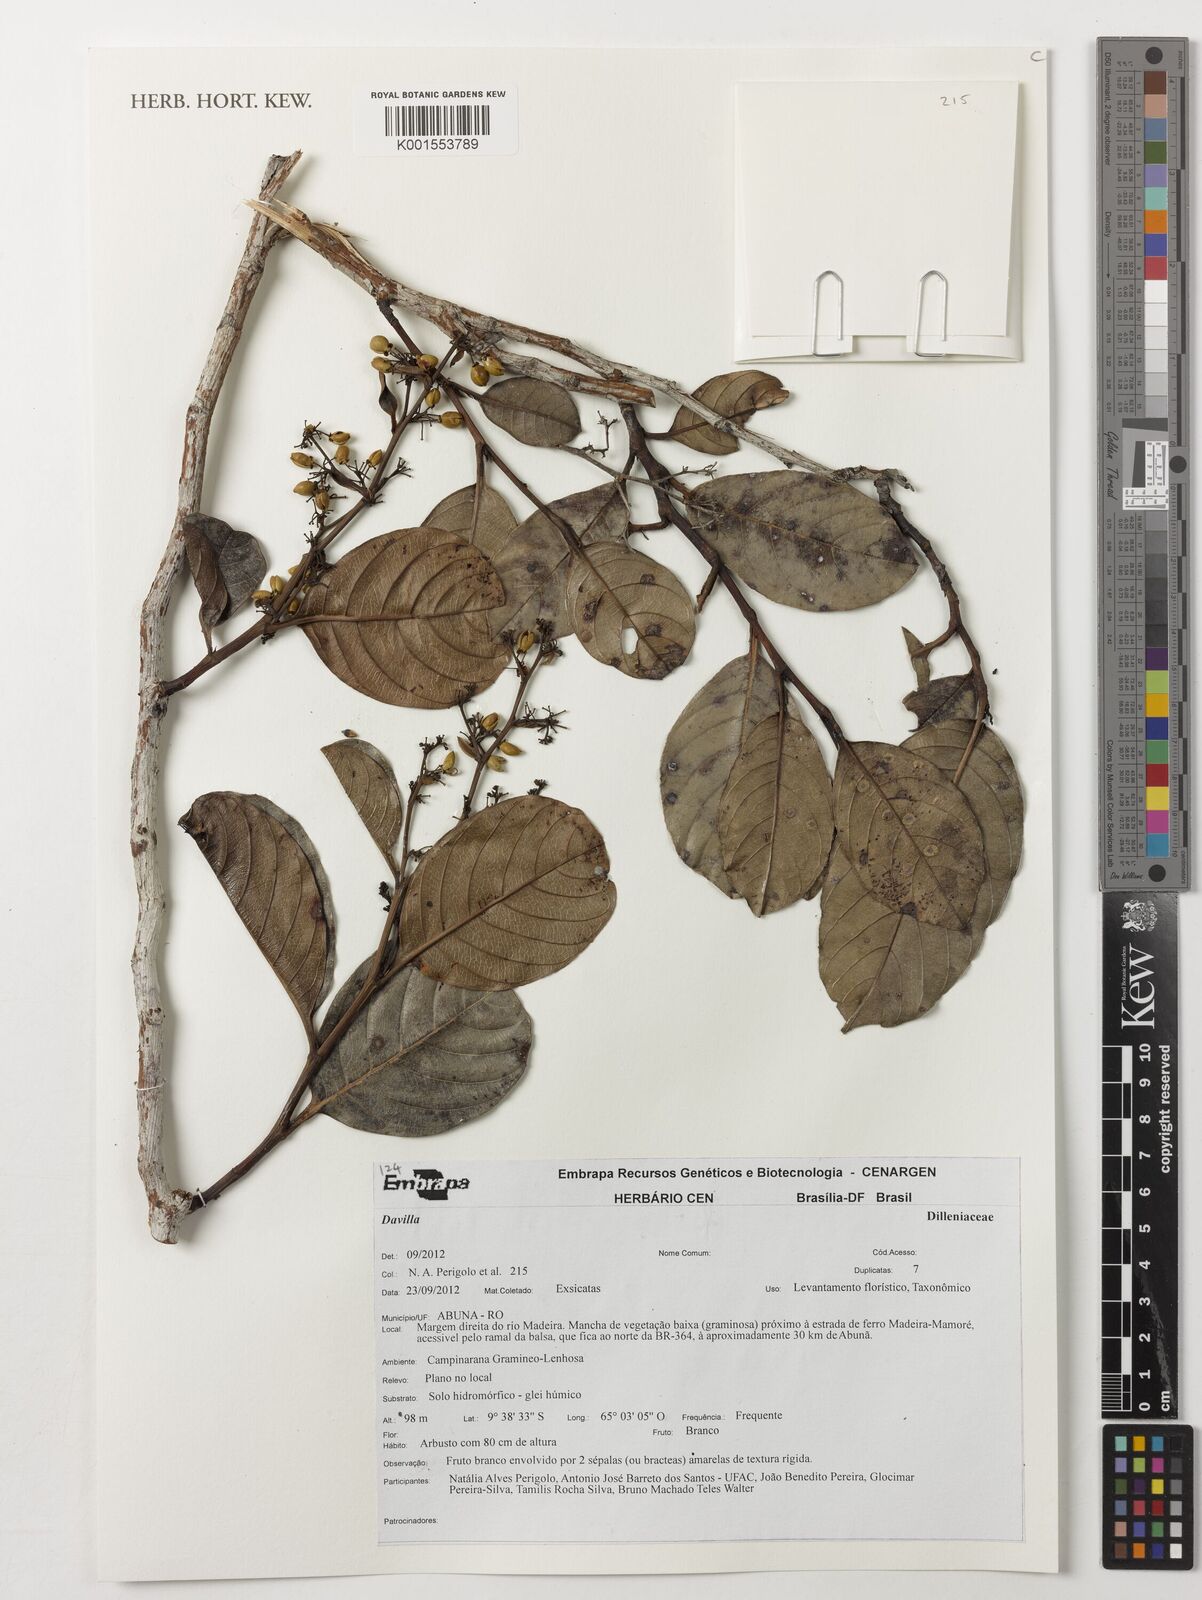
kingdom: Plantae
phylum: Tracheophyta
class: Magnoliopsida
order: Dilleniales
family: Dilleniaceae
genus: Davilla
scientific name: Davilla
